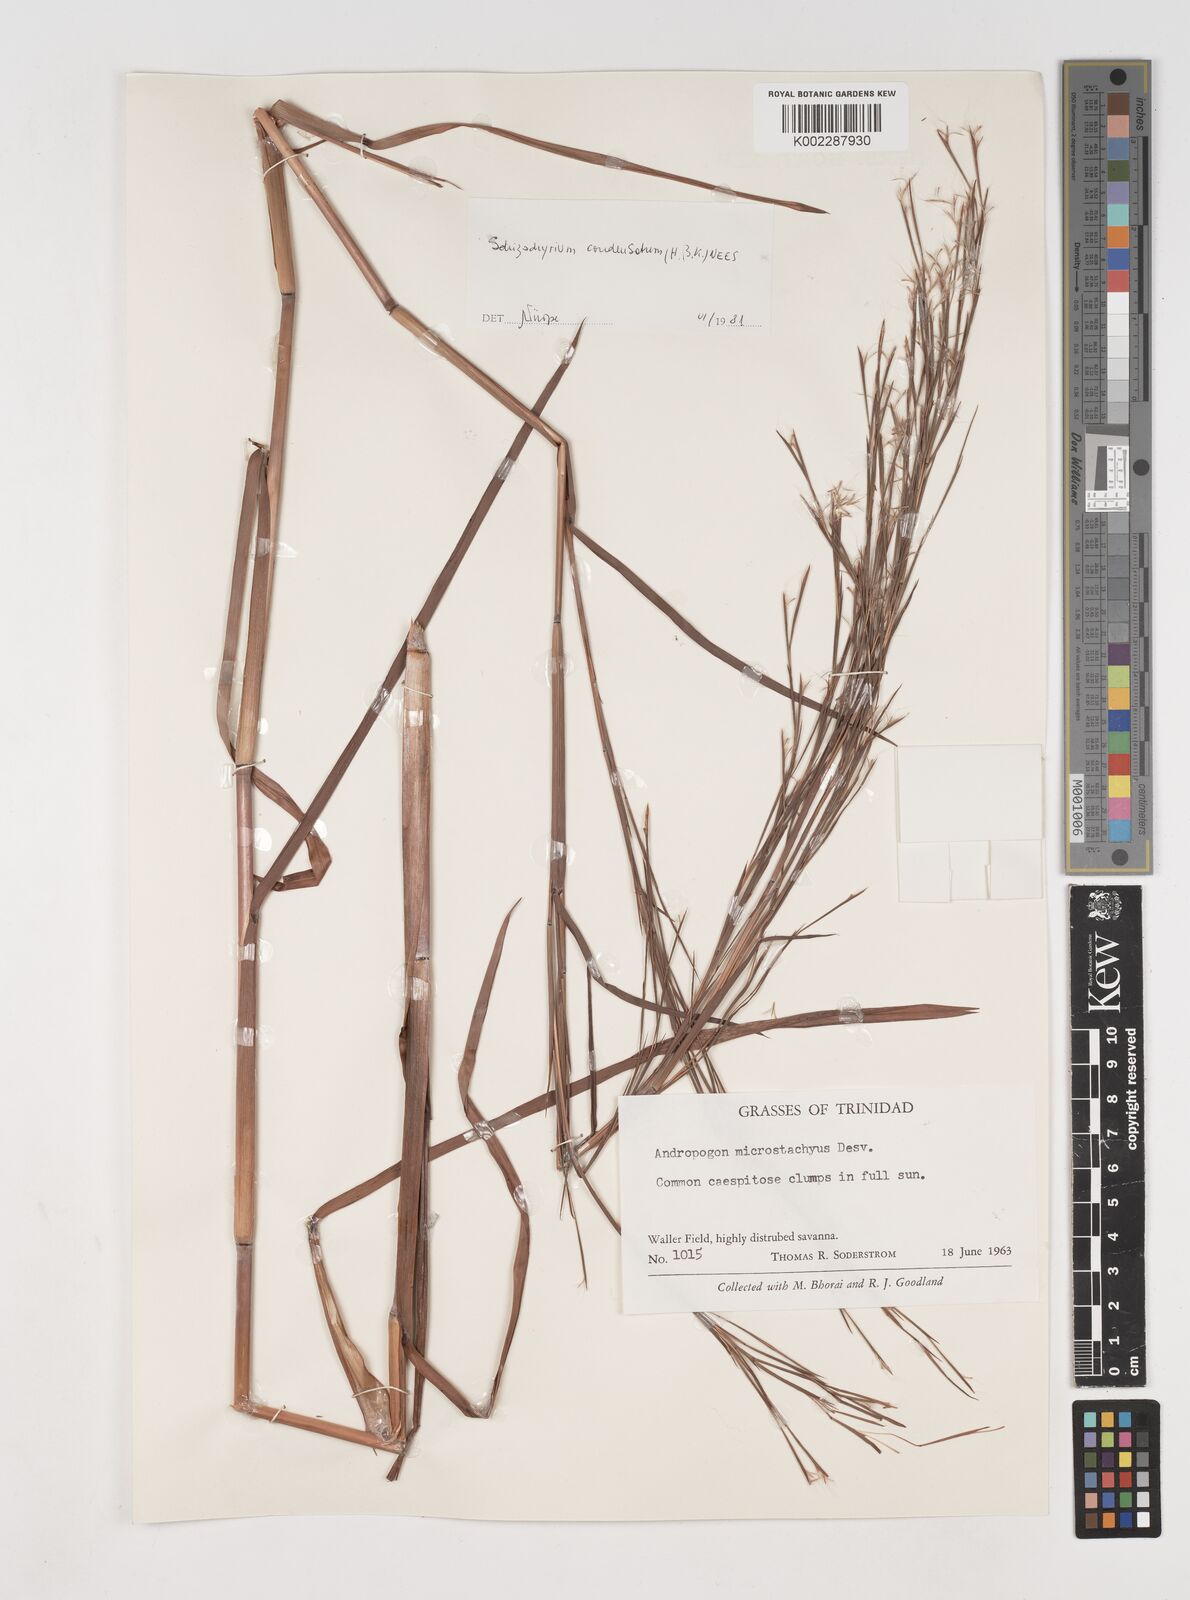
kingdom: Plantae
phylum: Tracheophyta
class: Liliopsida
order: Poales
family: Poaceae
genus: Schizachyrium
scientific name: Schizachyrium condensatum
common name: Bush beardgrass
